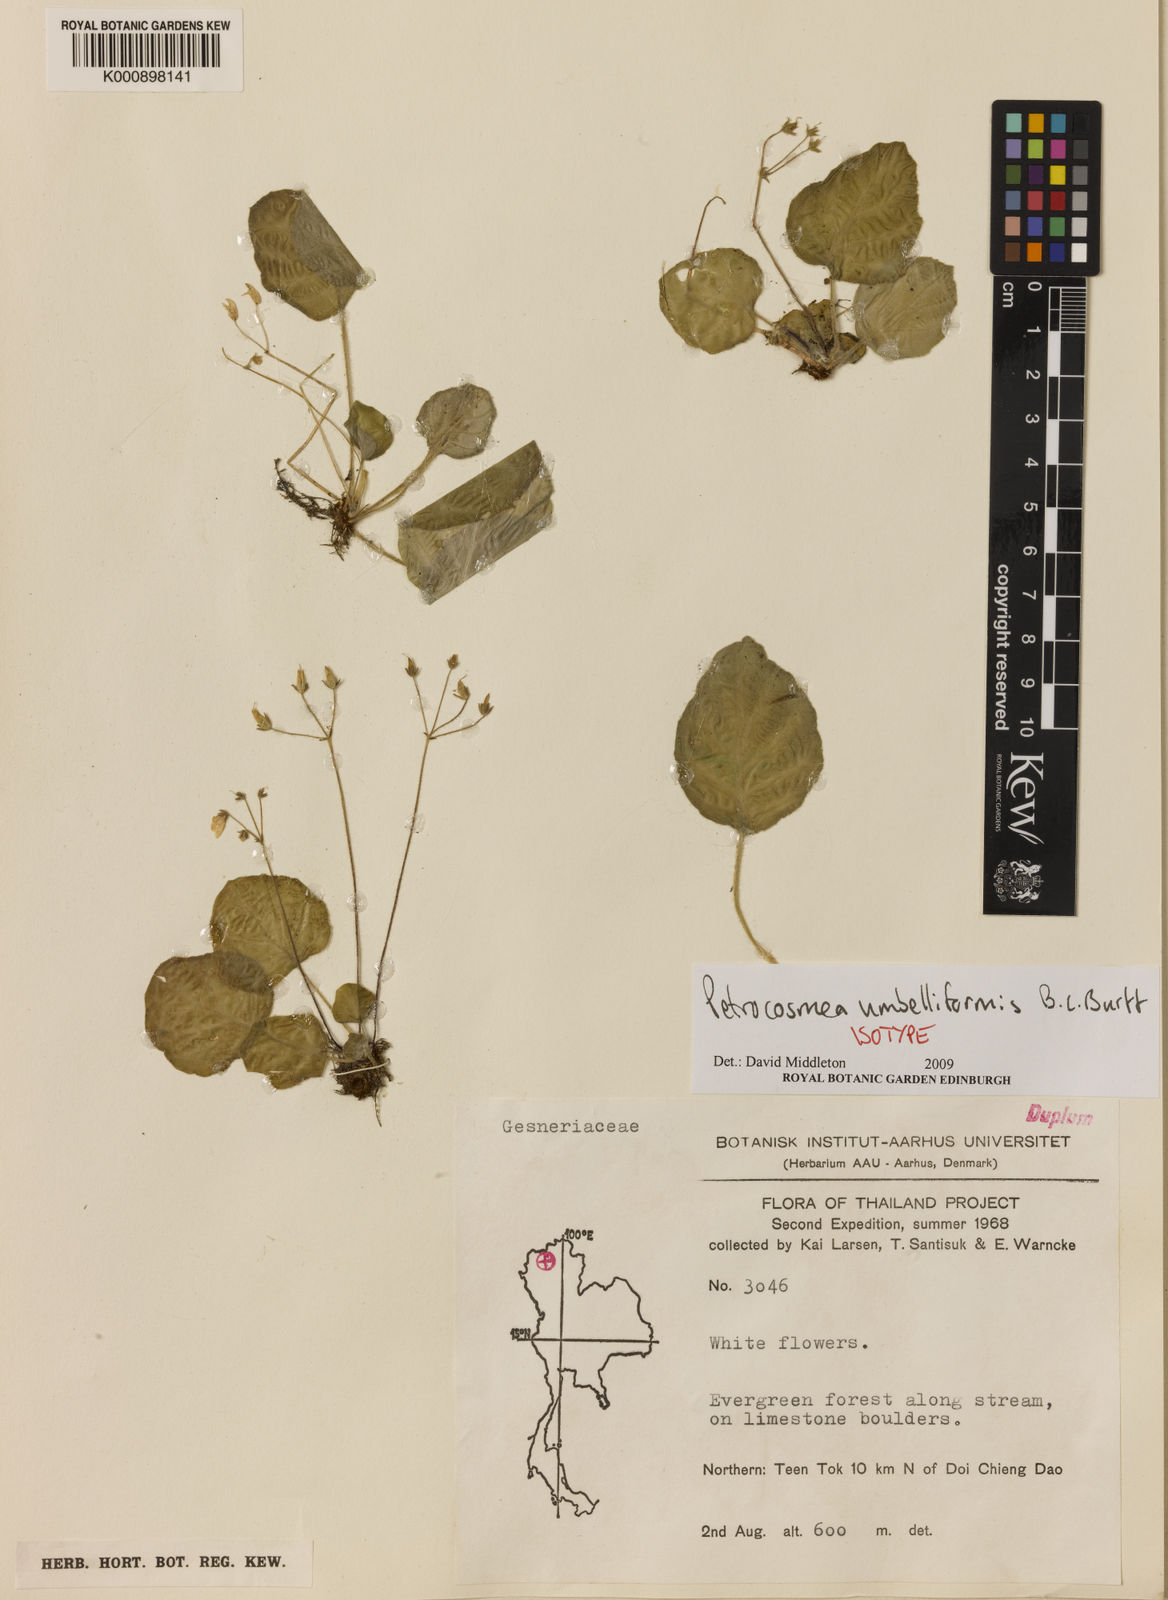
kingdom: Plantae
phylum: Tracheophyta
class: Magnoliopsida
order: Lamiales
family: Gesneriaceae
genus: Petrocosmea
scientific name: Petrocosmea umbelliformis
